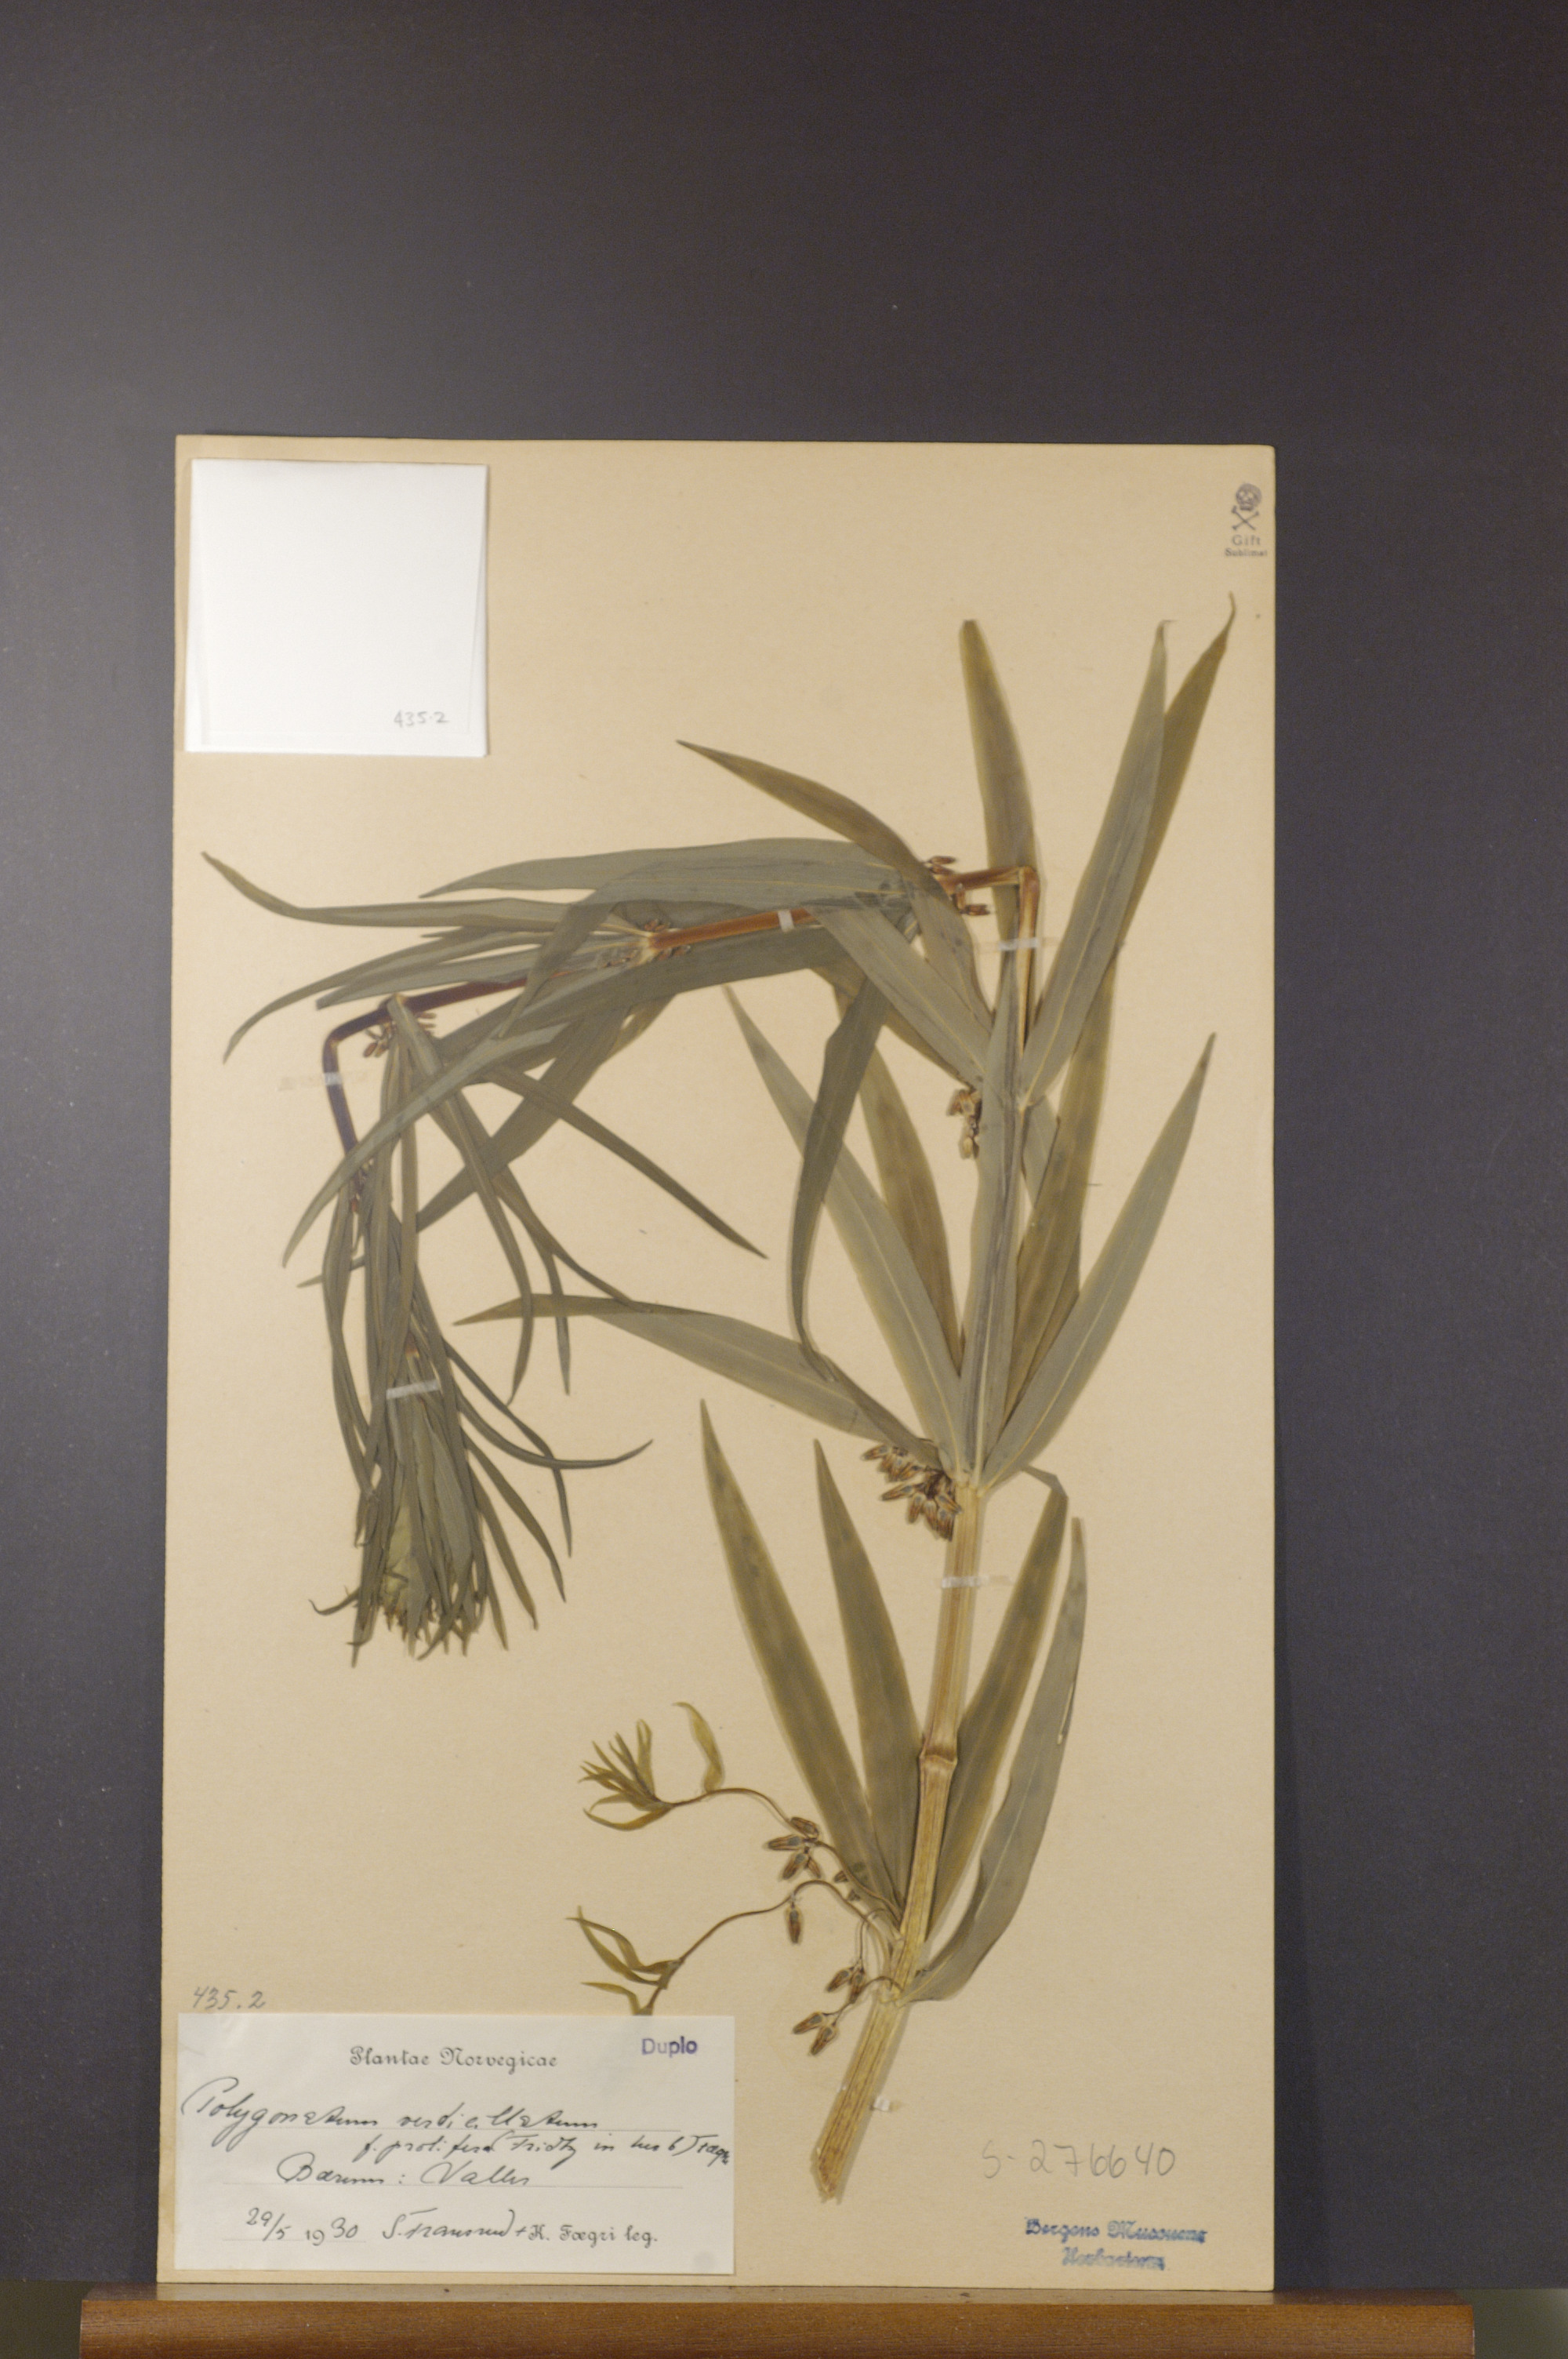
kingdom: Plantae
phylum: Tracheophyta
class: Liliopsida
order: Asparagales
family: Asparagaceae
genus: Polygonatum
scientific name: Polygonatum verticillatum
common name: Whorled solomon's-seal
